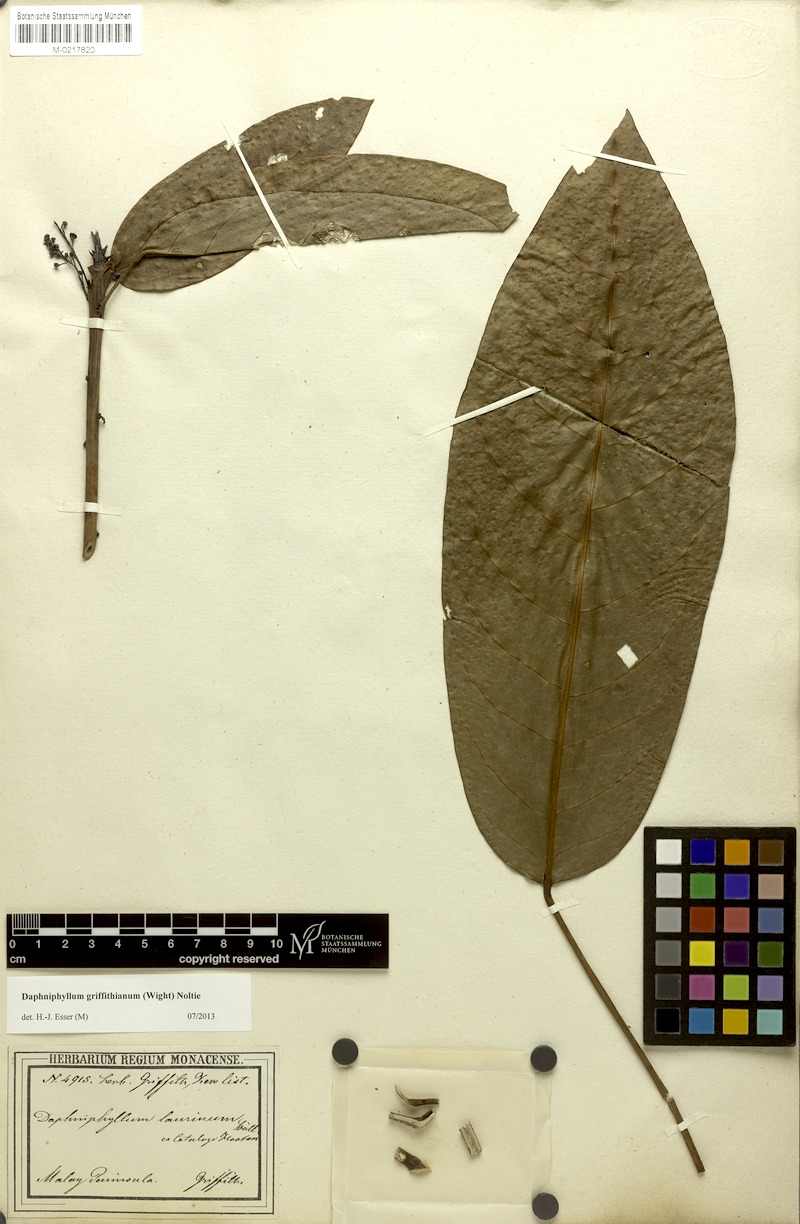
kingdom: Plantae
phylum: Tracheophyta
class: Magnoliopsida
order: Saxifragales
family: Daphniphyllaceae
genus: Daphniphyllum
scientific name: Daphniphyllum griffithianum
